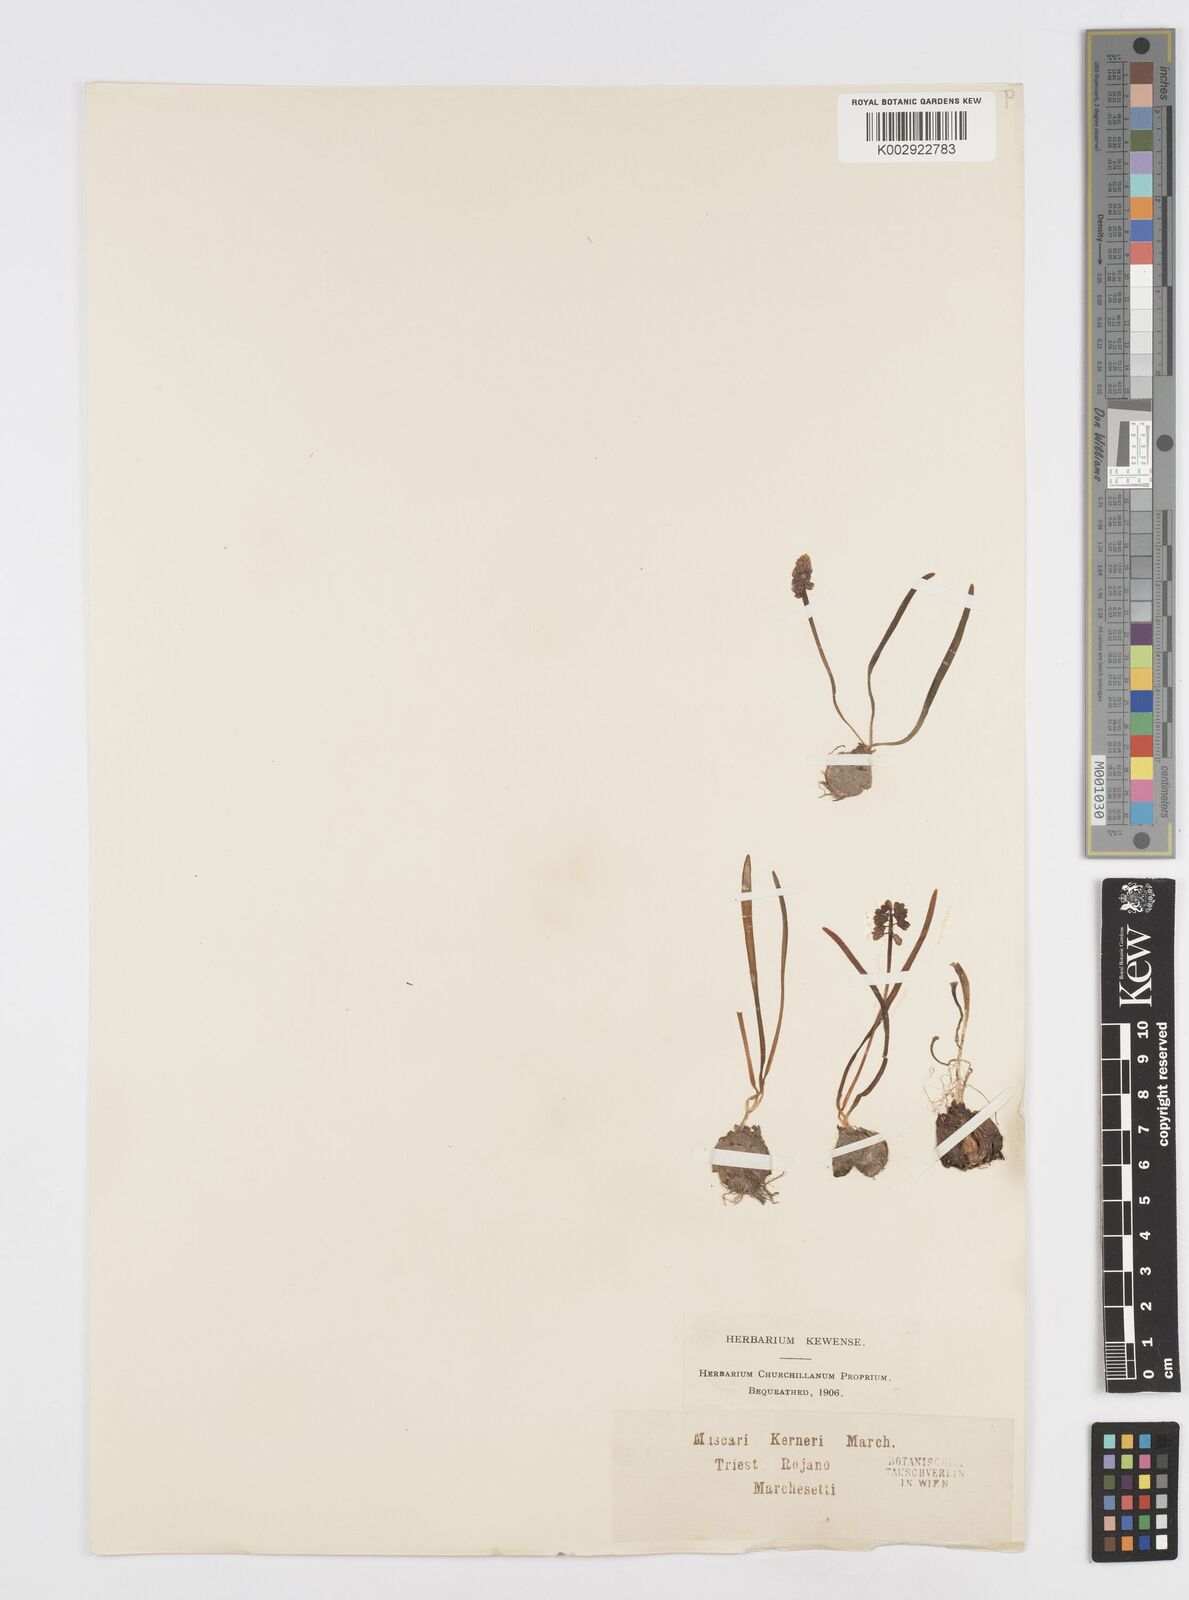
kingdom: Plantae
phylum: Tracheophyta
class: Liliopsida
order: Asparagales
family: Asparagaceae
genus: Muscari
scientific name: Muscari
